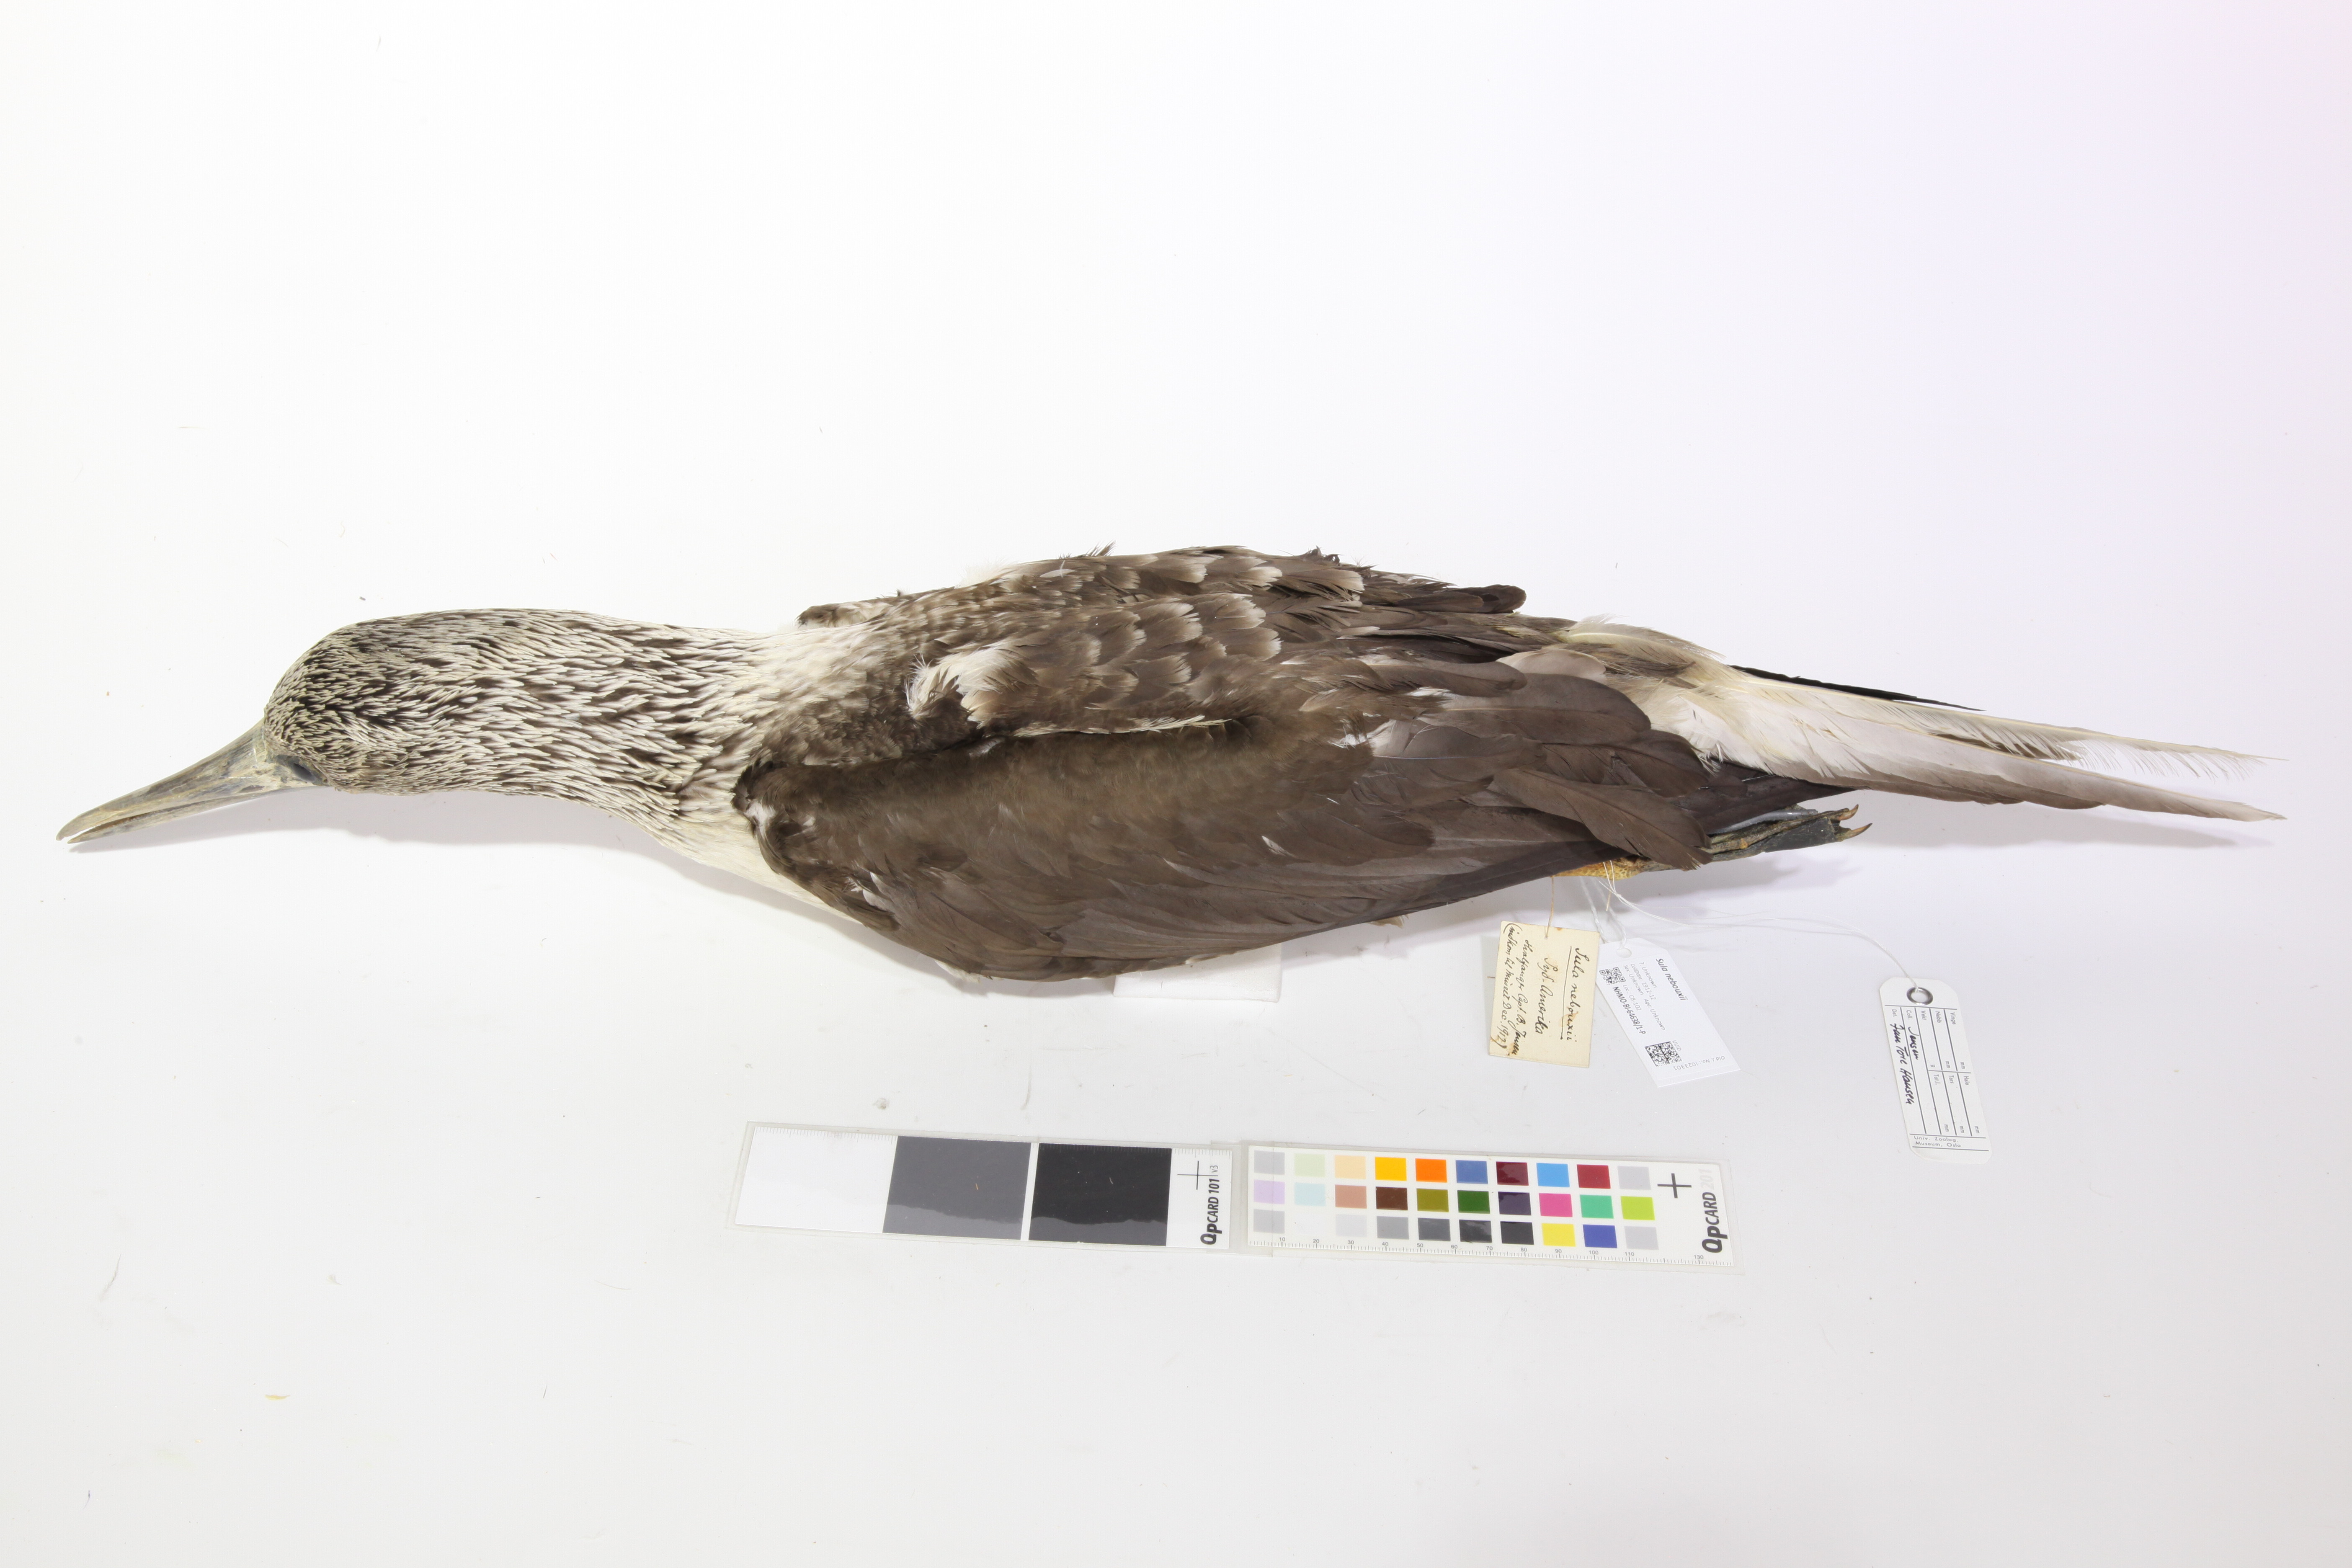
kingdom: Animalia
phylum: Chordata
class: Aves
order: Suliformes
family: Sulidae
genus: Sula
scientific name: Sula nebouxii
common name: Blue-footed booby
